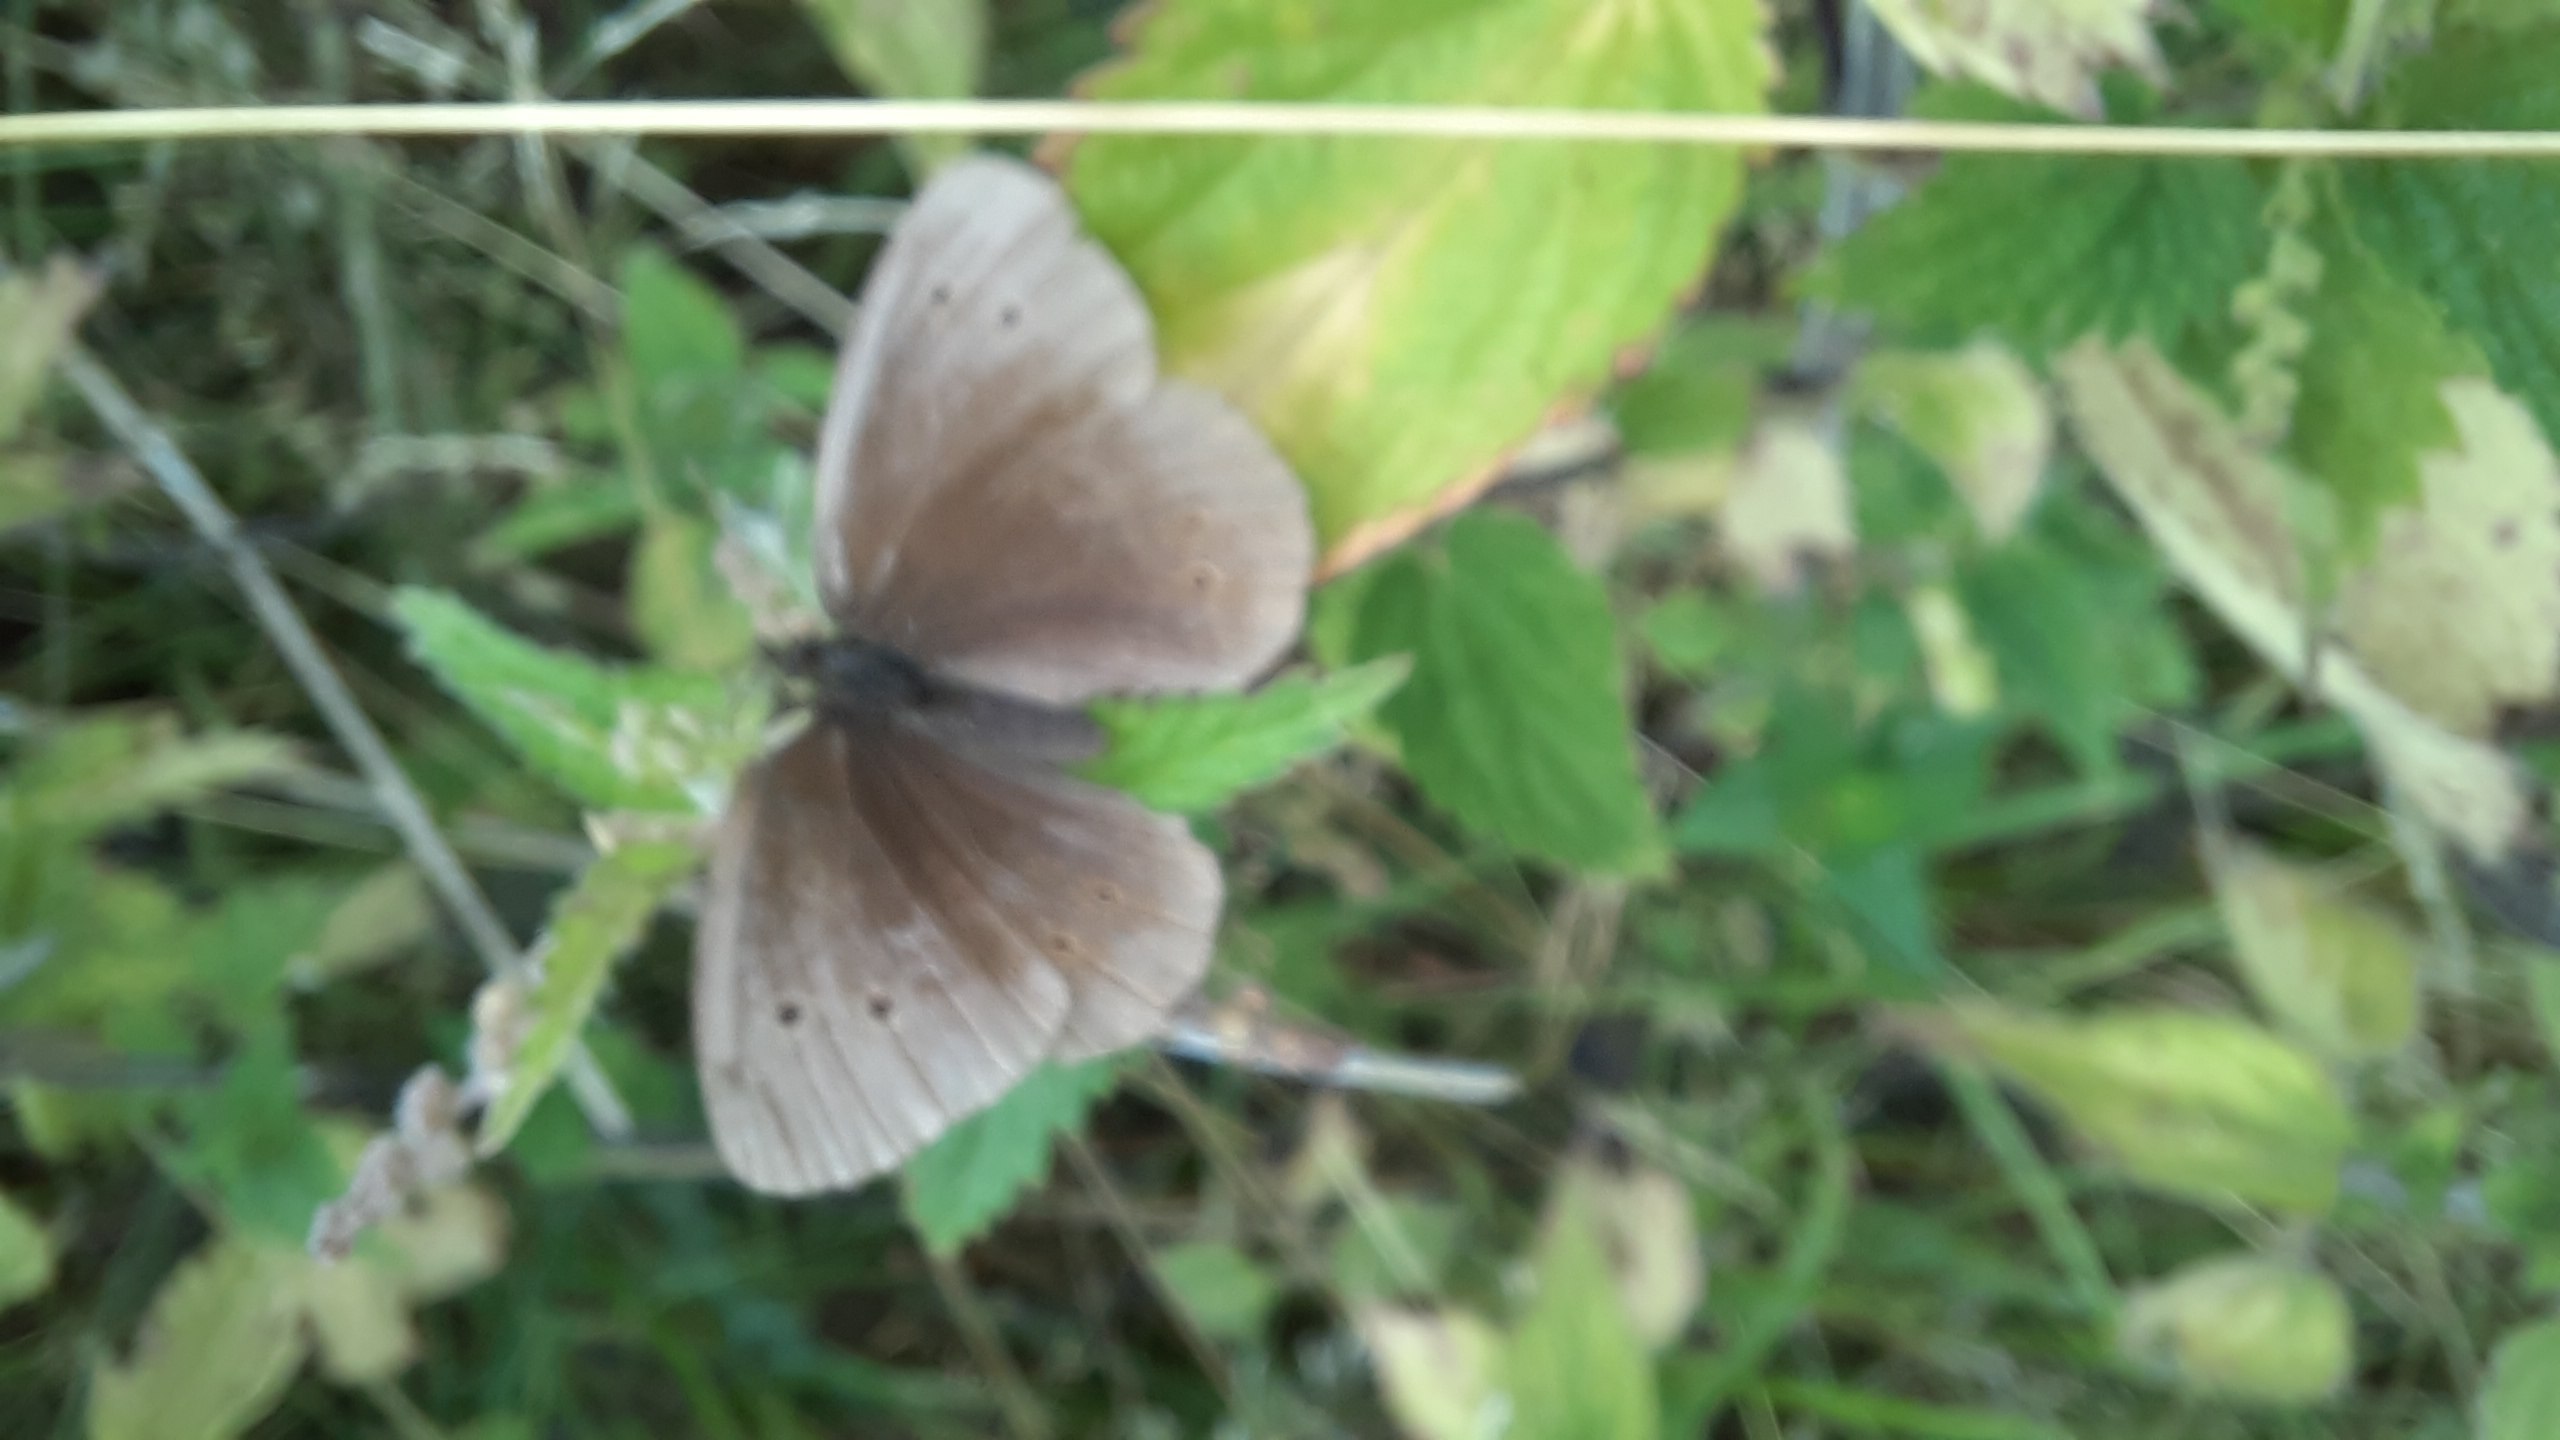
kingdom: Animalia
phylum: Arthropoda
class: Insecta
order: Lepidoptera
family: Nymphalidae
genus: Aphantopus
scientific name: Aphantopus hyperantus
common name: Engrandøje
